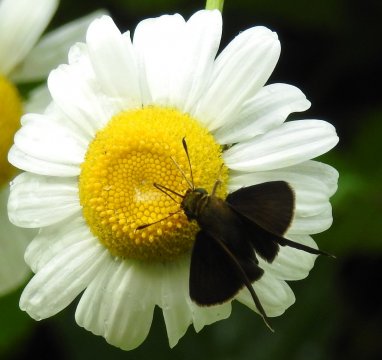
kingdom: Animalia
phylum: Arthropoda
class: Insecta
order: Lepidoptera
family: Hesperiidae
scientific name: Hesperiidae
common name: Skippers
